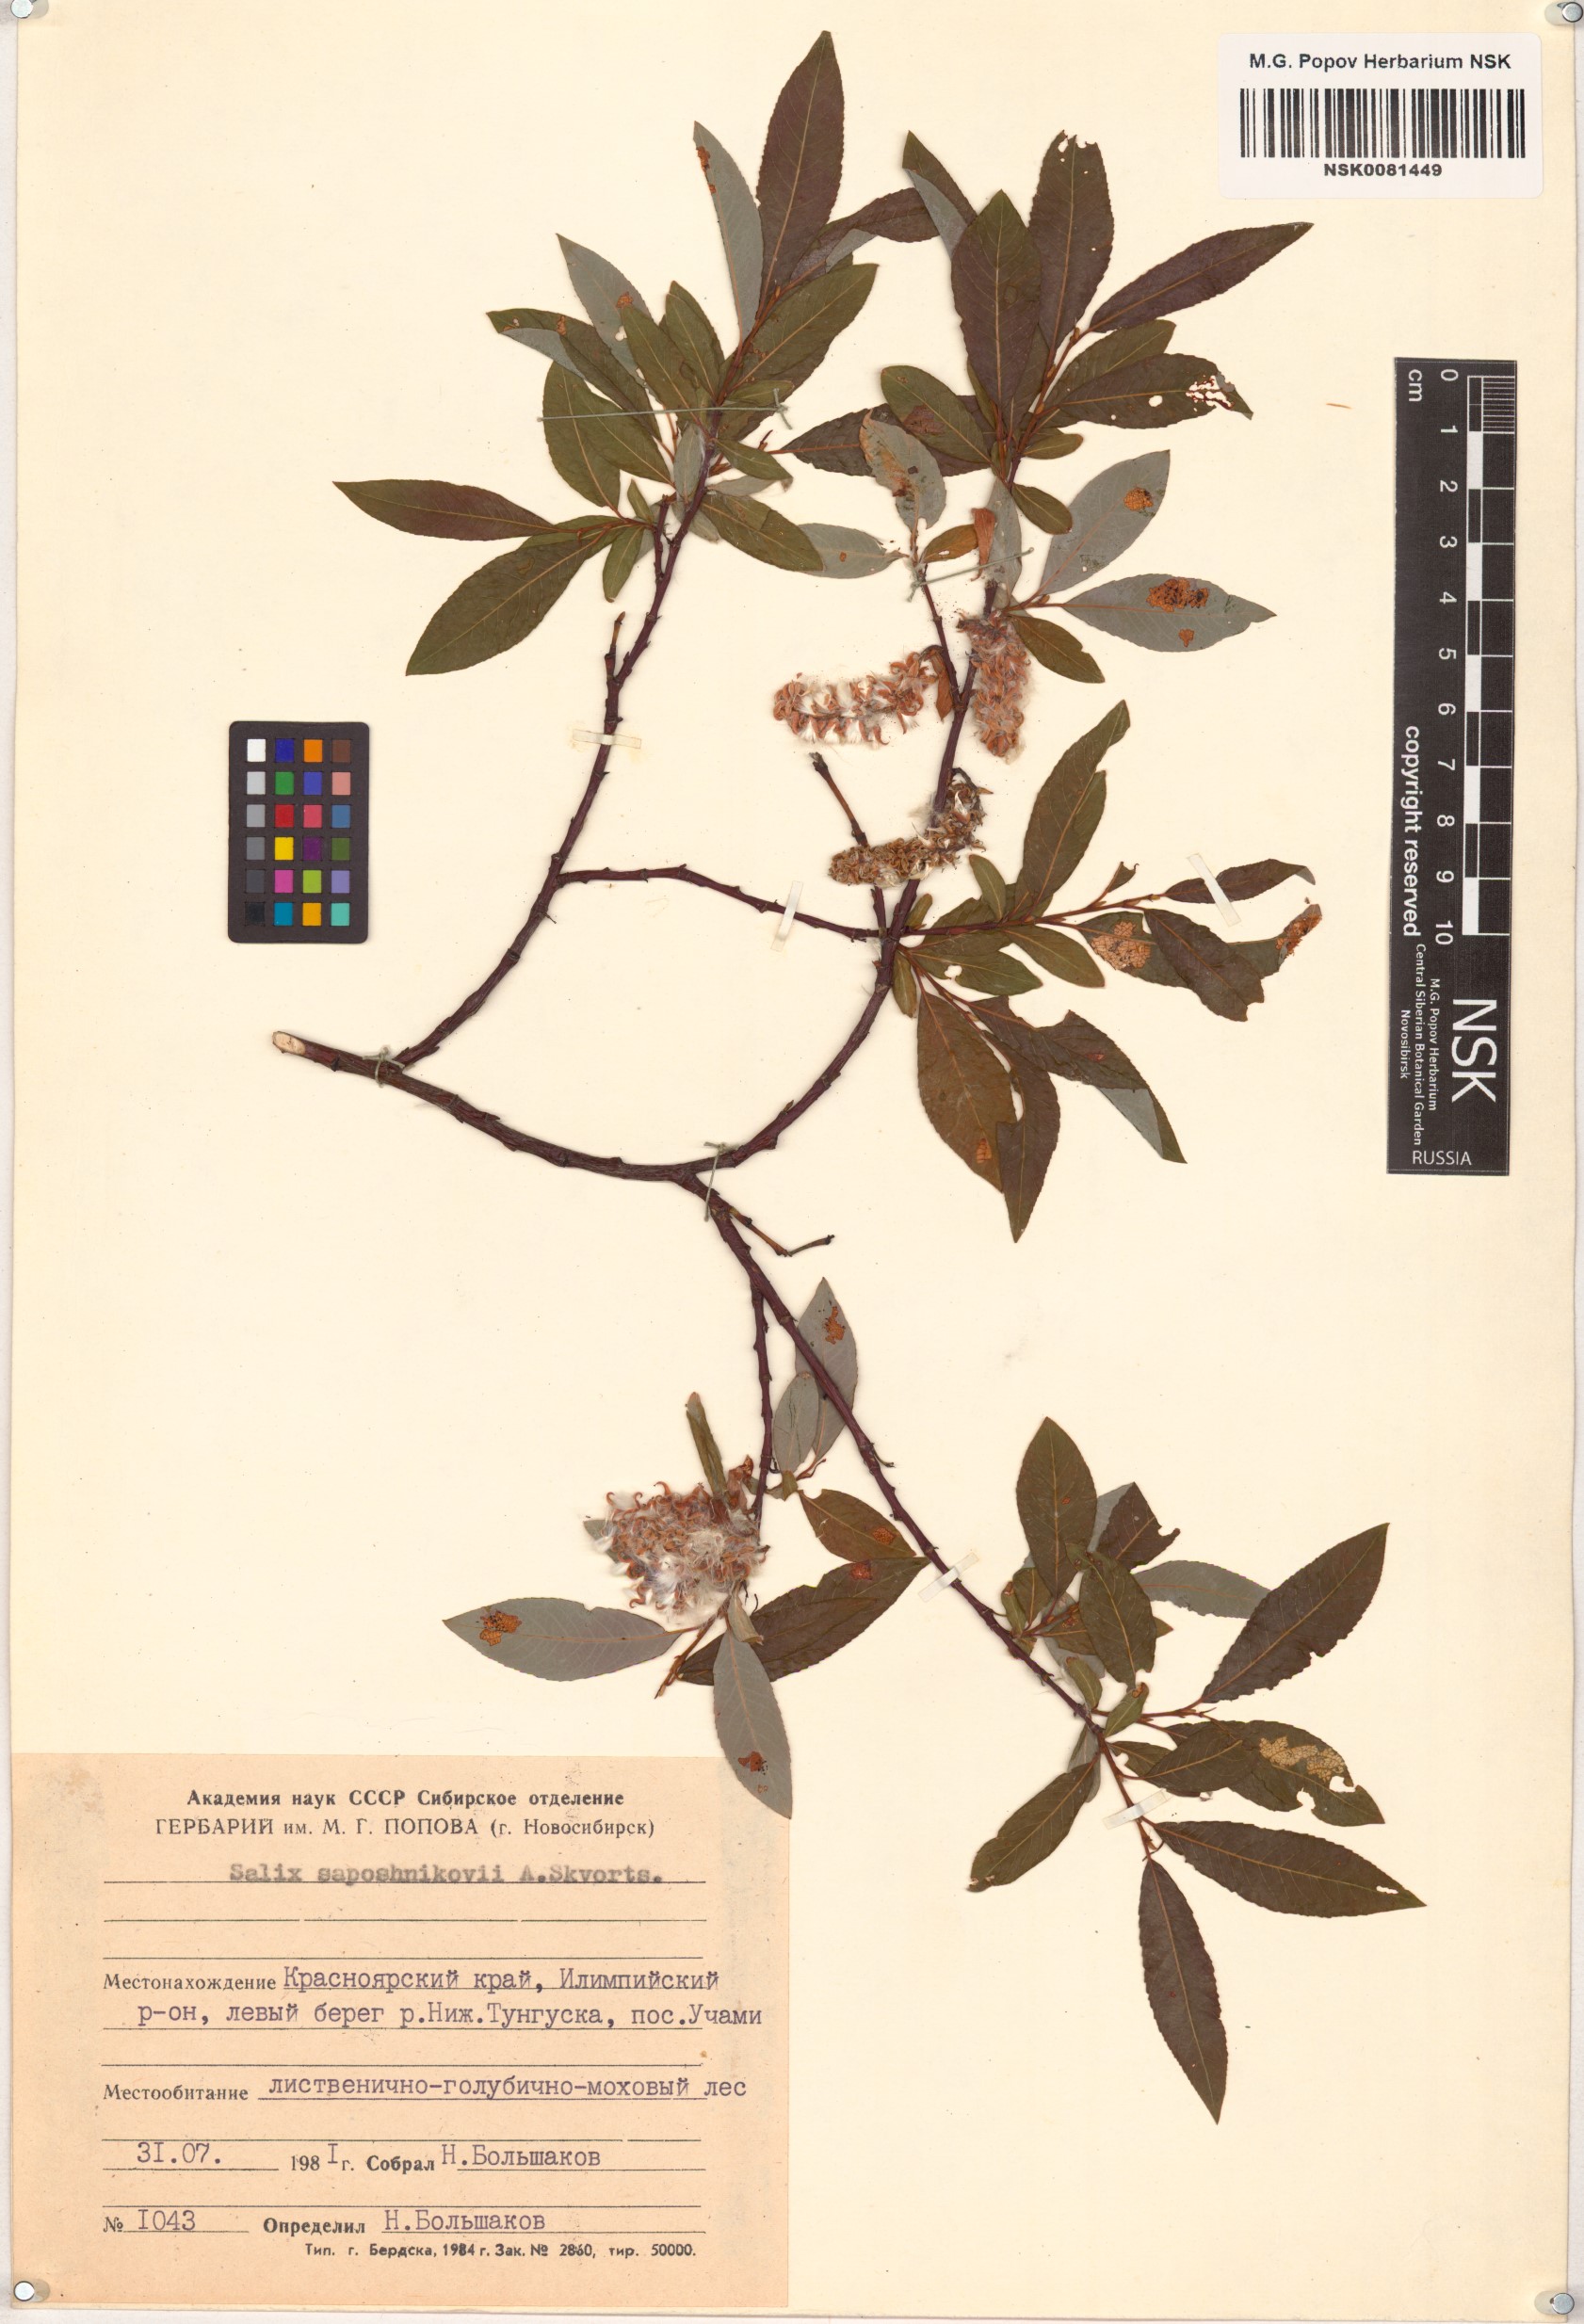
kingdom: Plantae
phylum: Tracheophyta
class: Magnoliopsida
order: Malpighiales
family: Salicaceae
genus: Salix
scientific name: Salix saposhnikovii
